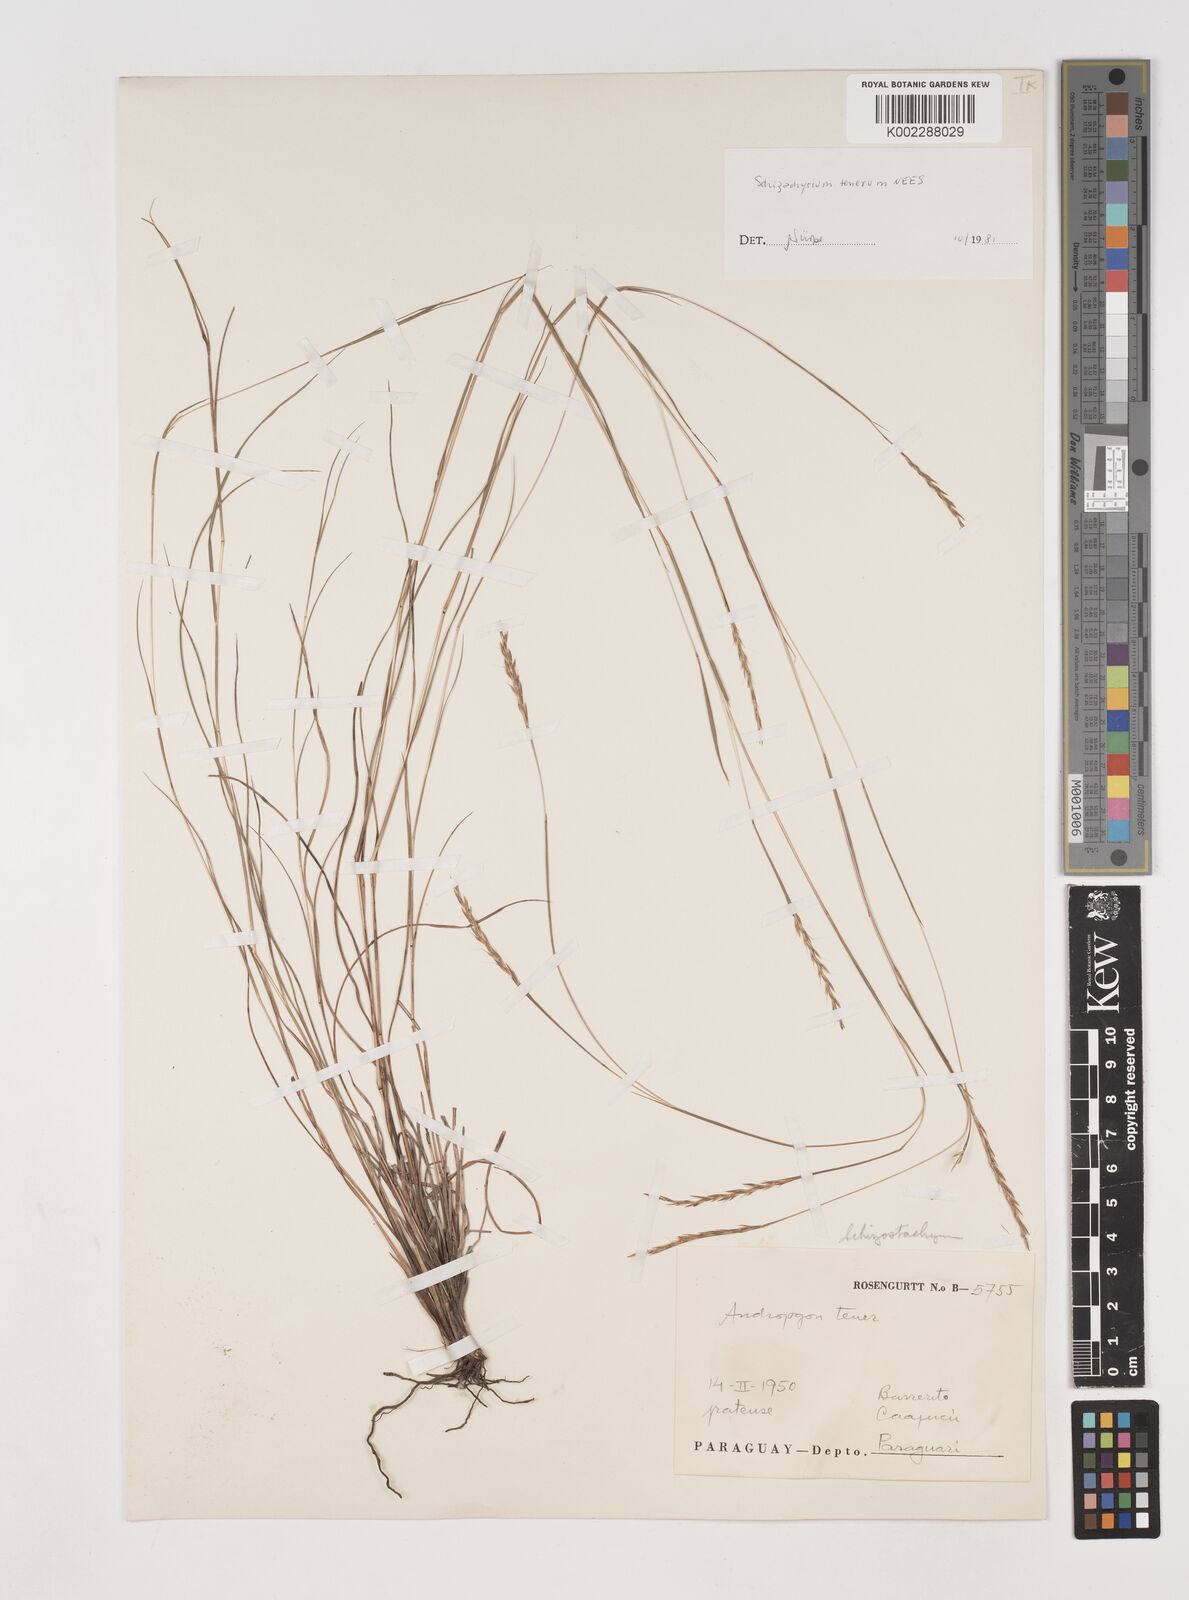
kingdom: Plantae
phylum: Tracheophyta
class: Liliopsida
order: Poales
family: Poaceae
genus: Andropogon
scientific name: Andropogon tener
